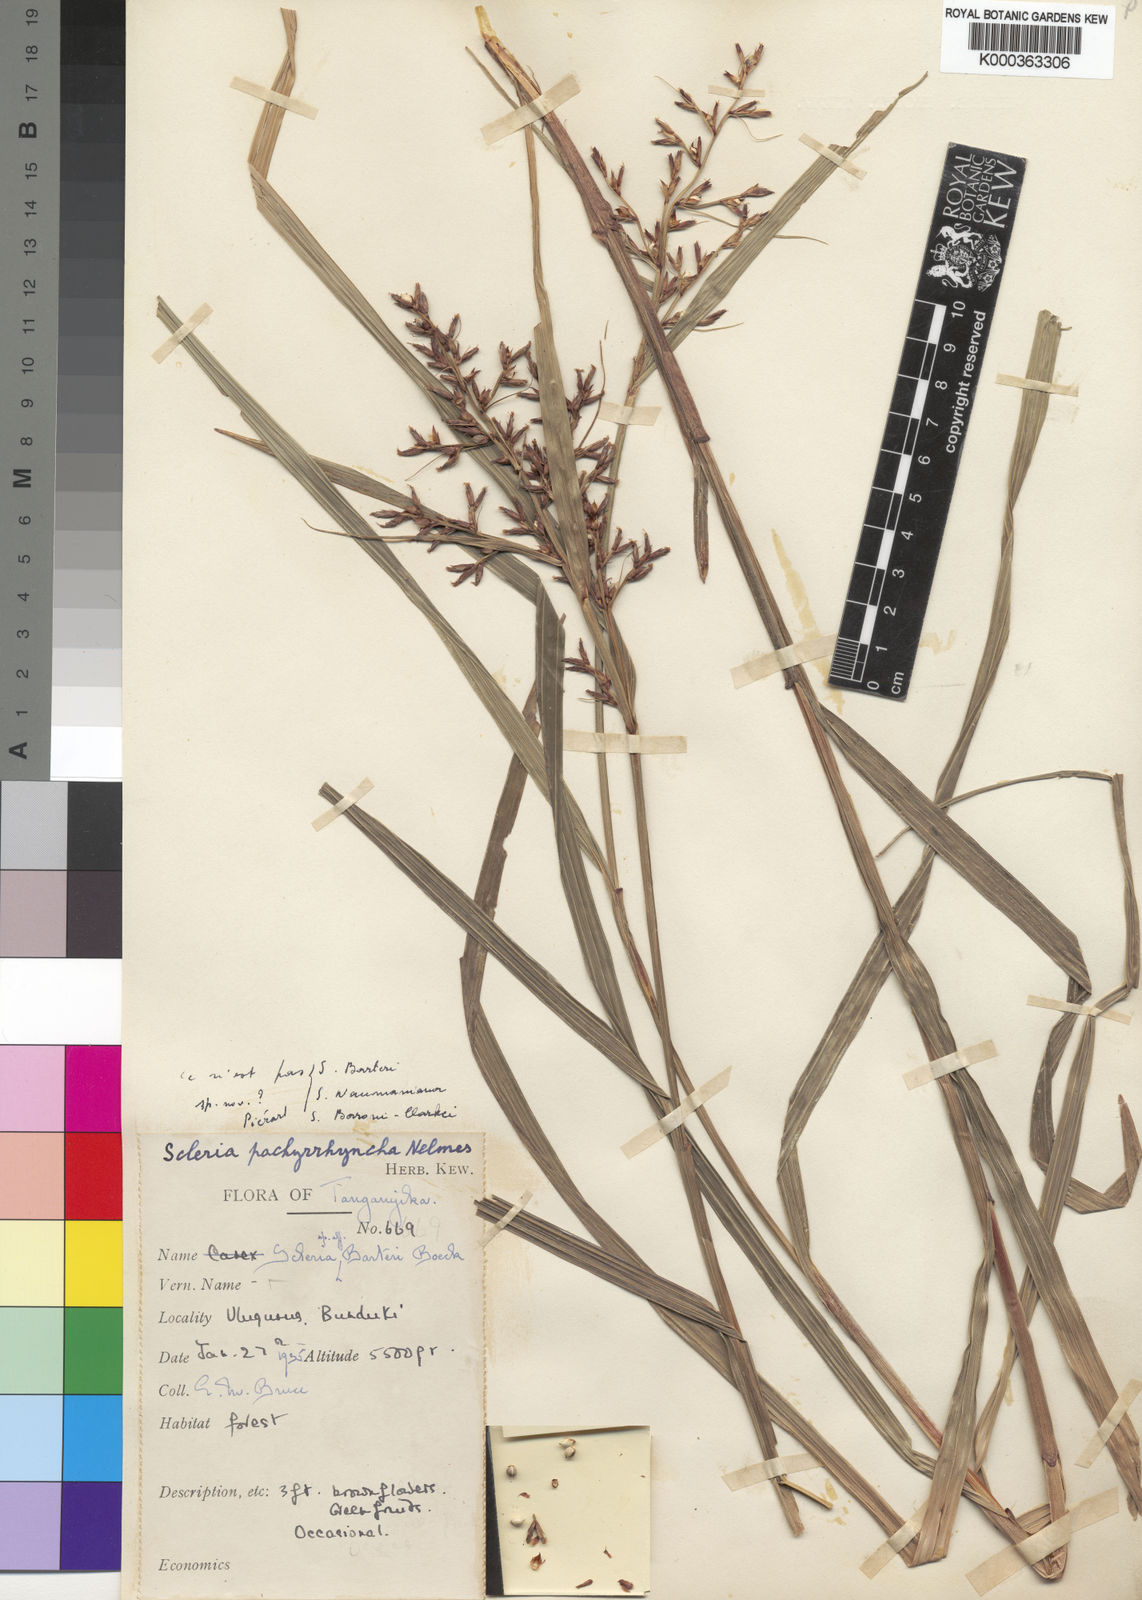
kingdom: Plantae
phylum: Tracheophyta
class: Liliopsida
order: Poales
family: Cyperaceae
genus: Scleria
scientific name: Scleria pachyrrhyncha
